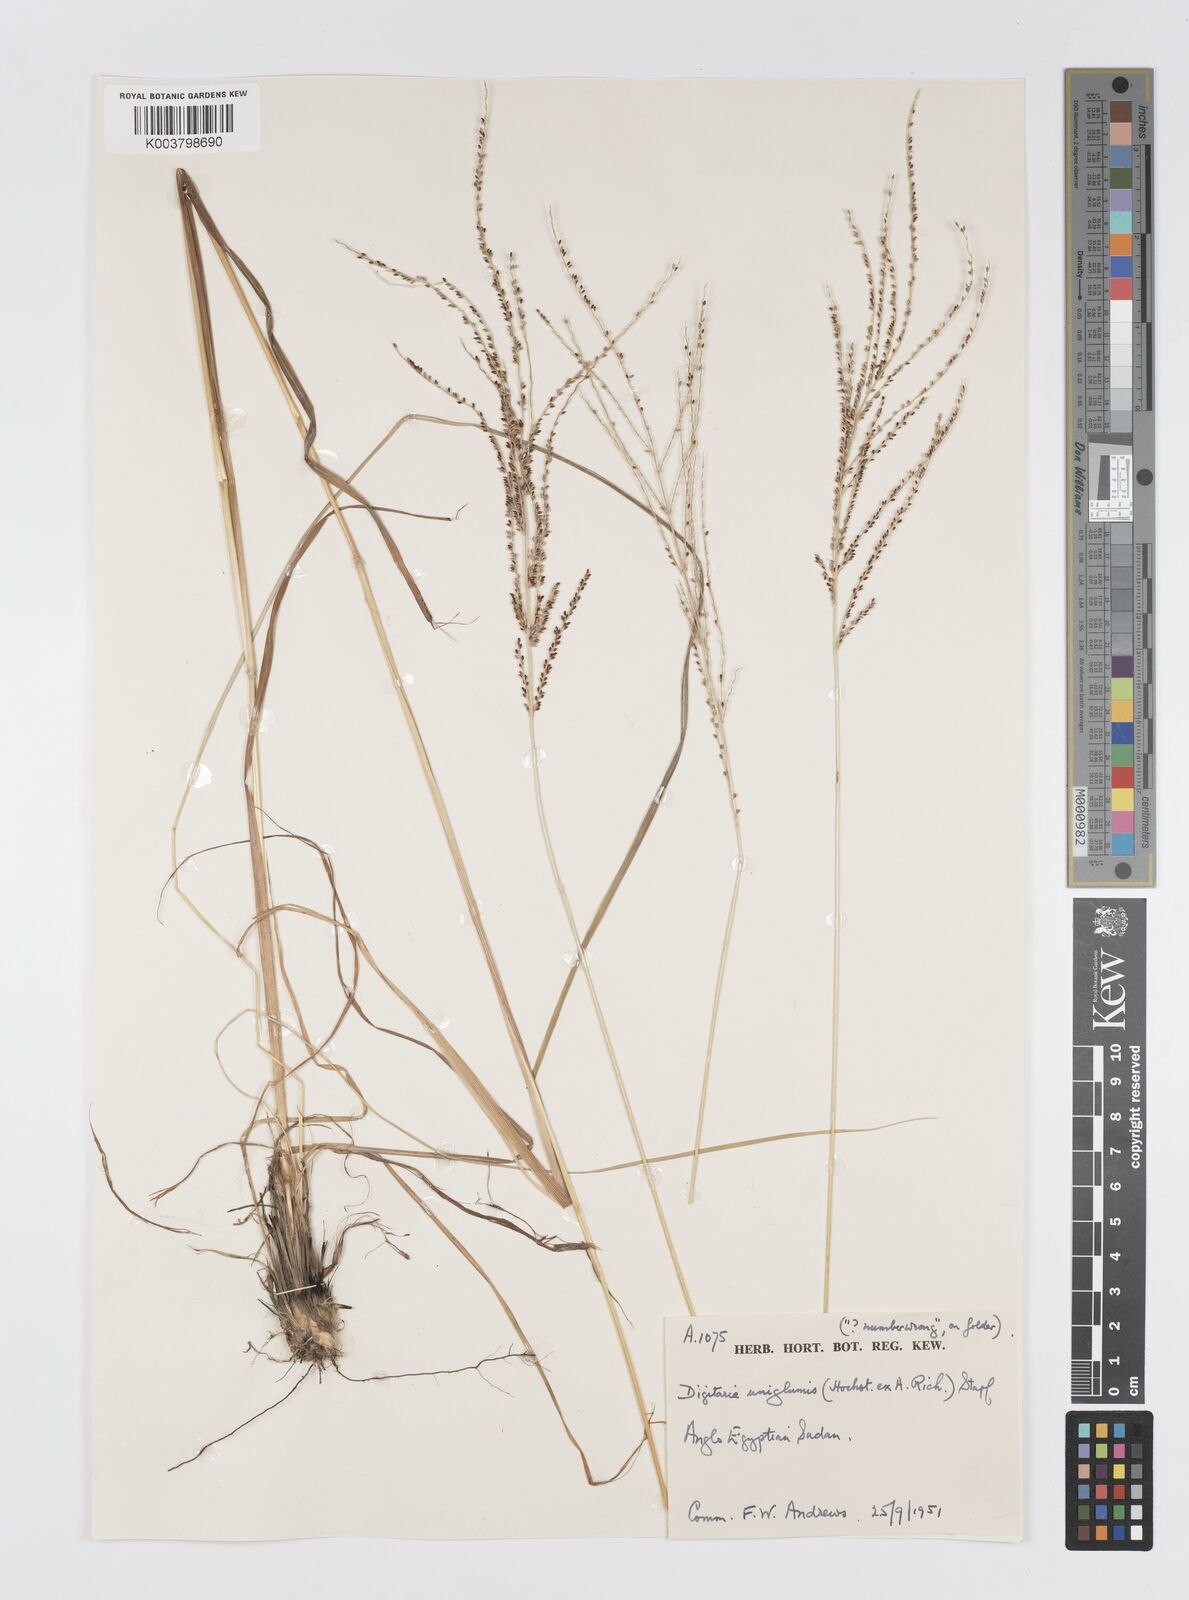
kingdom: Plantae
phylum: Tracheophyta
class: Liliopsida
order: Poales
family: Poaceae
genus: Digitaria
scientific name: Digitaria diagonalis
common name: Brown-seed finger grass
